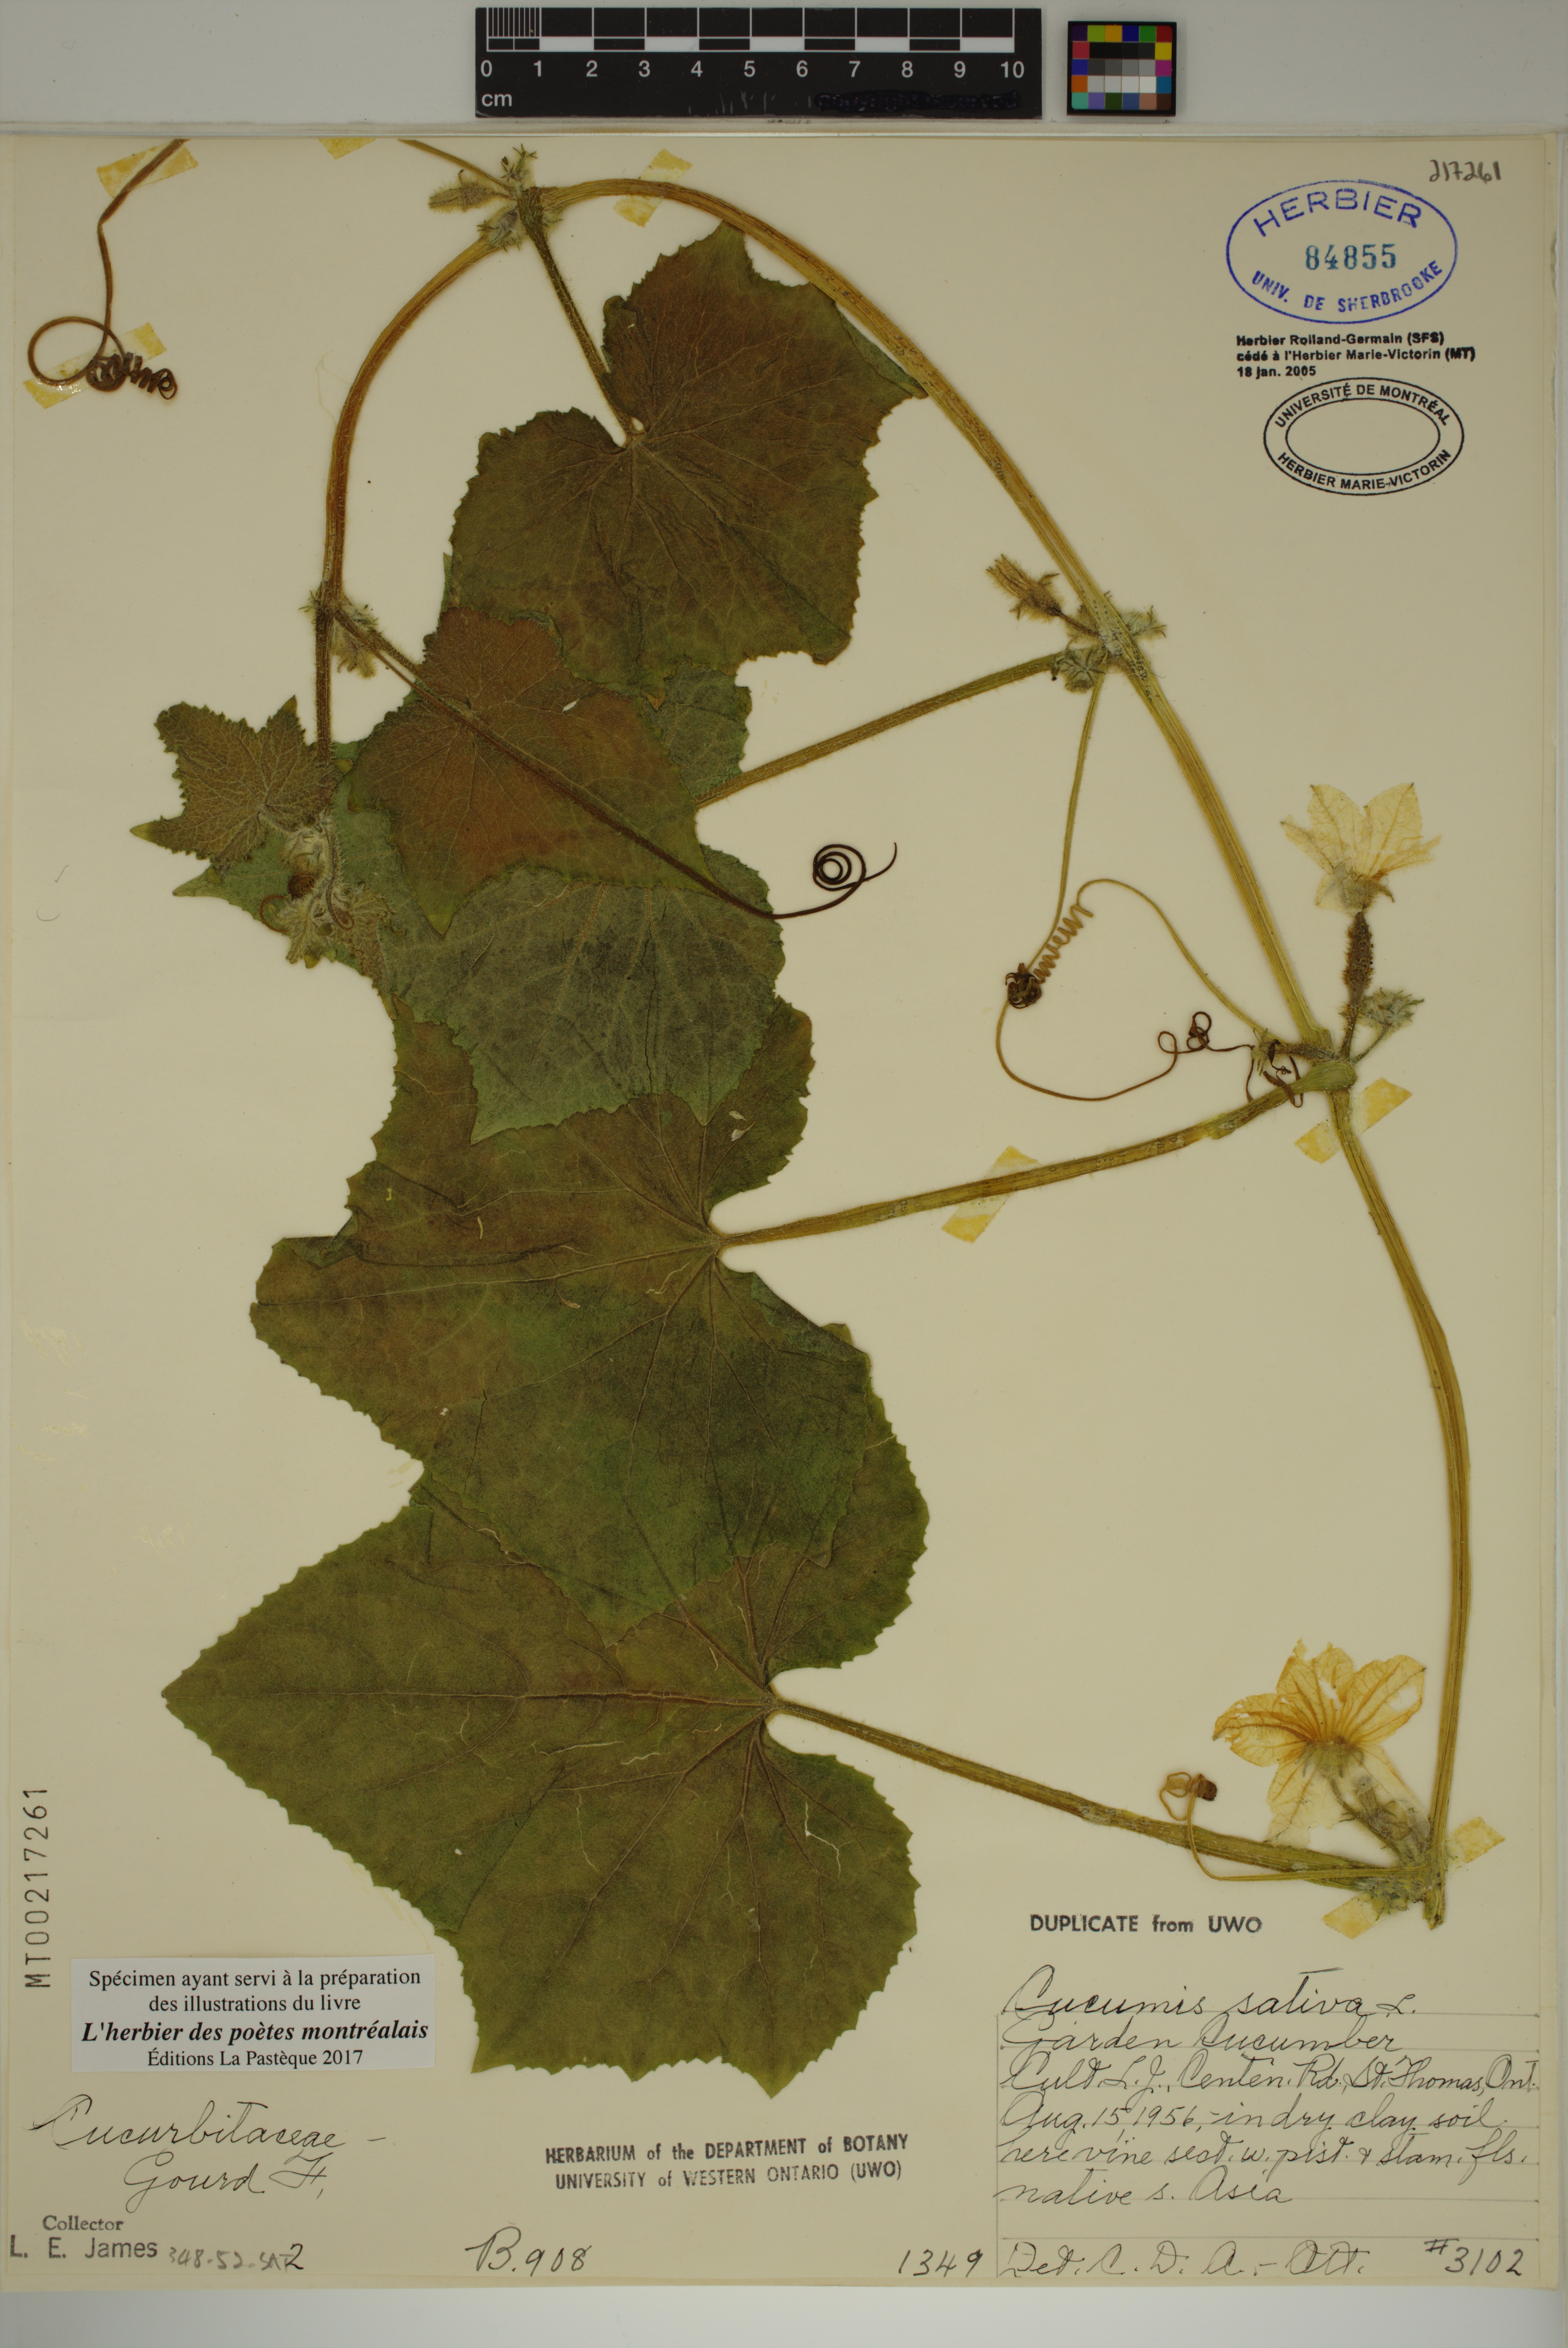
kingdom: Plantae
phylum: Tracheophyta
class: Magnoliopsida
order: Cucurbitales
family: Cucurbitaceae
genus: Cucumis
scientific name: Cucumis sativus
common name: Cucumber
